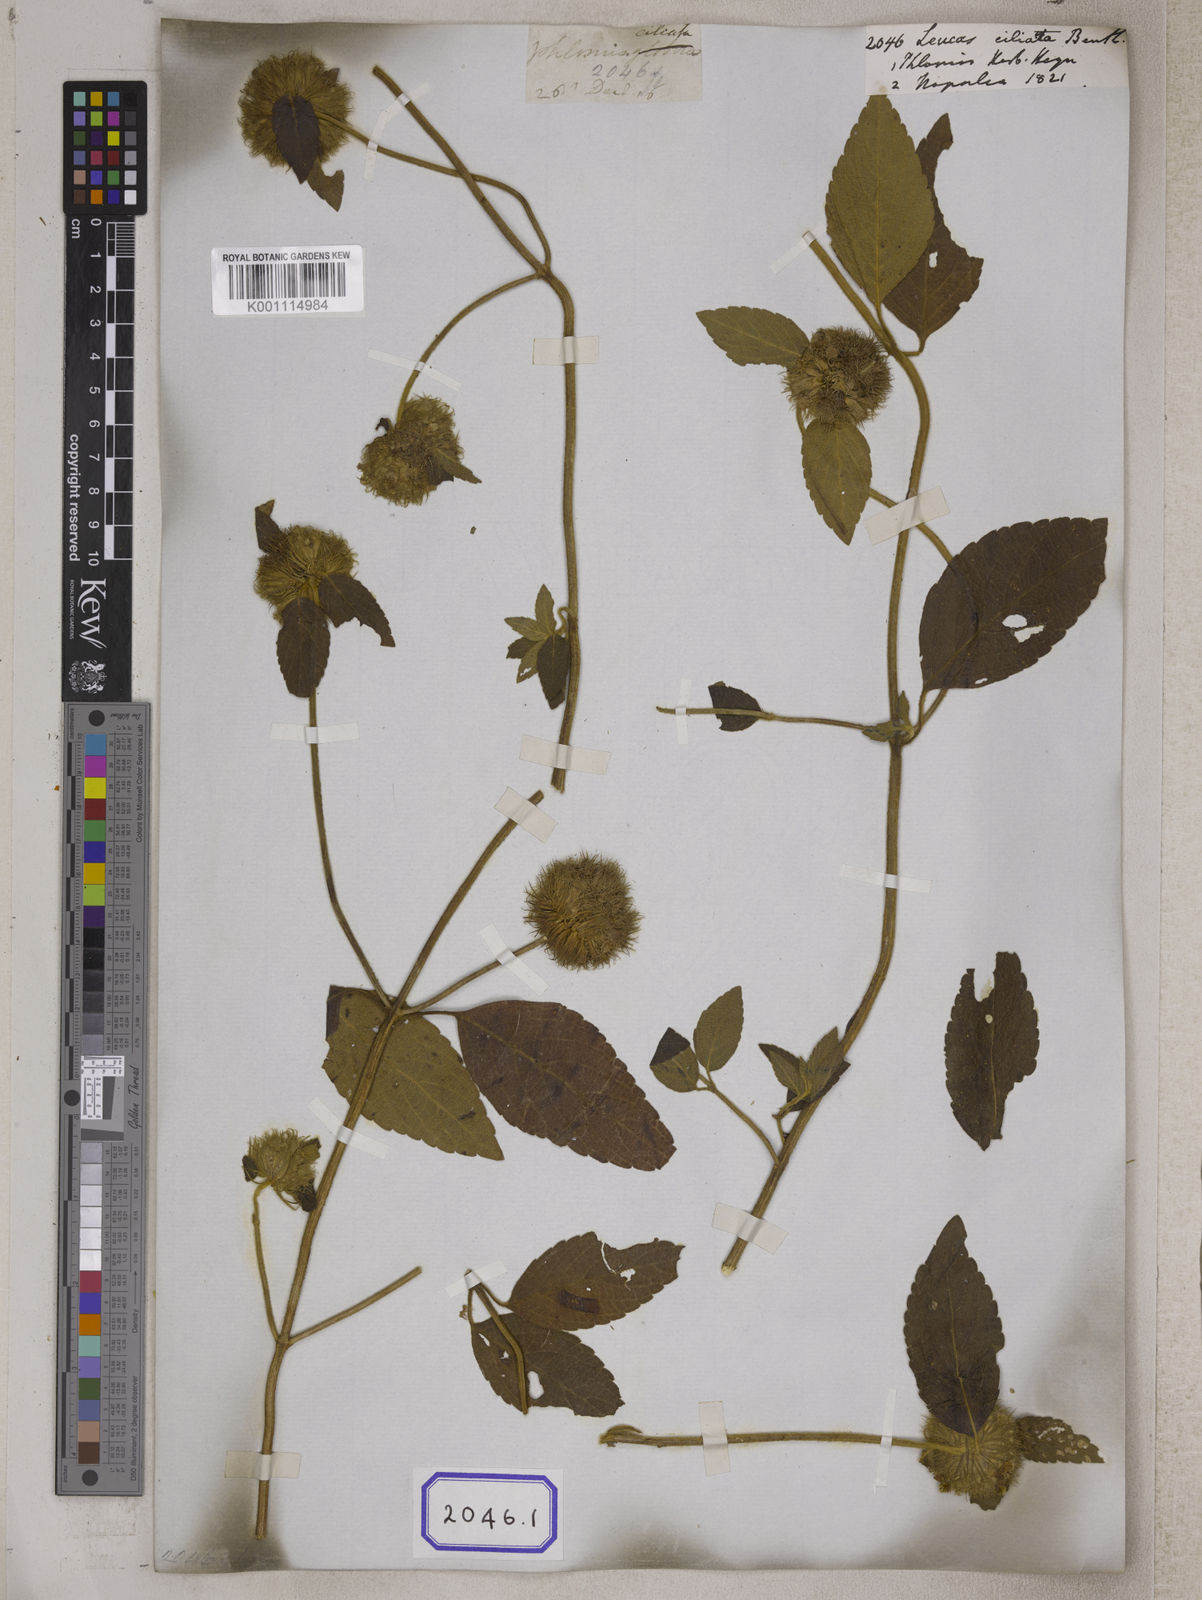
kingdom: Plantae
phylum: Tracheophyta
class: Magnoliopsida
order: Lamiales
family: Lamiaceae
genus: Leucas
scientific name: Leucas ciliata
